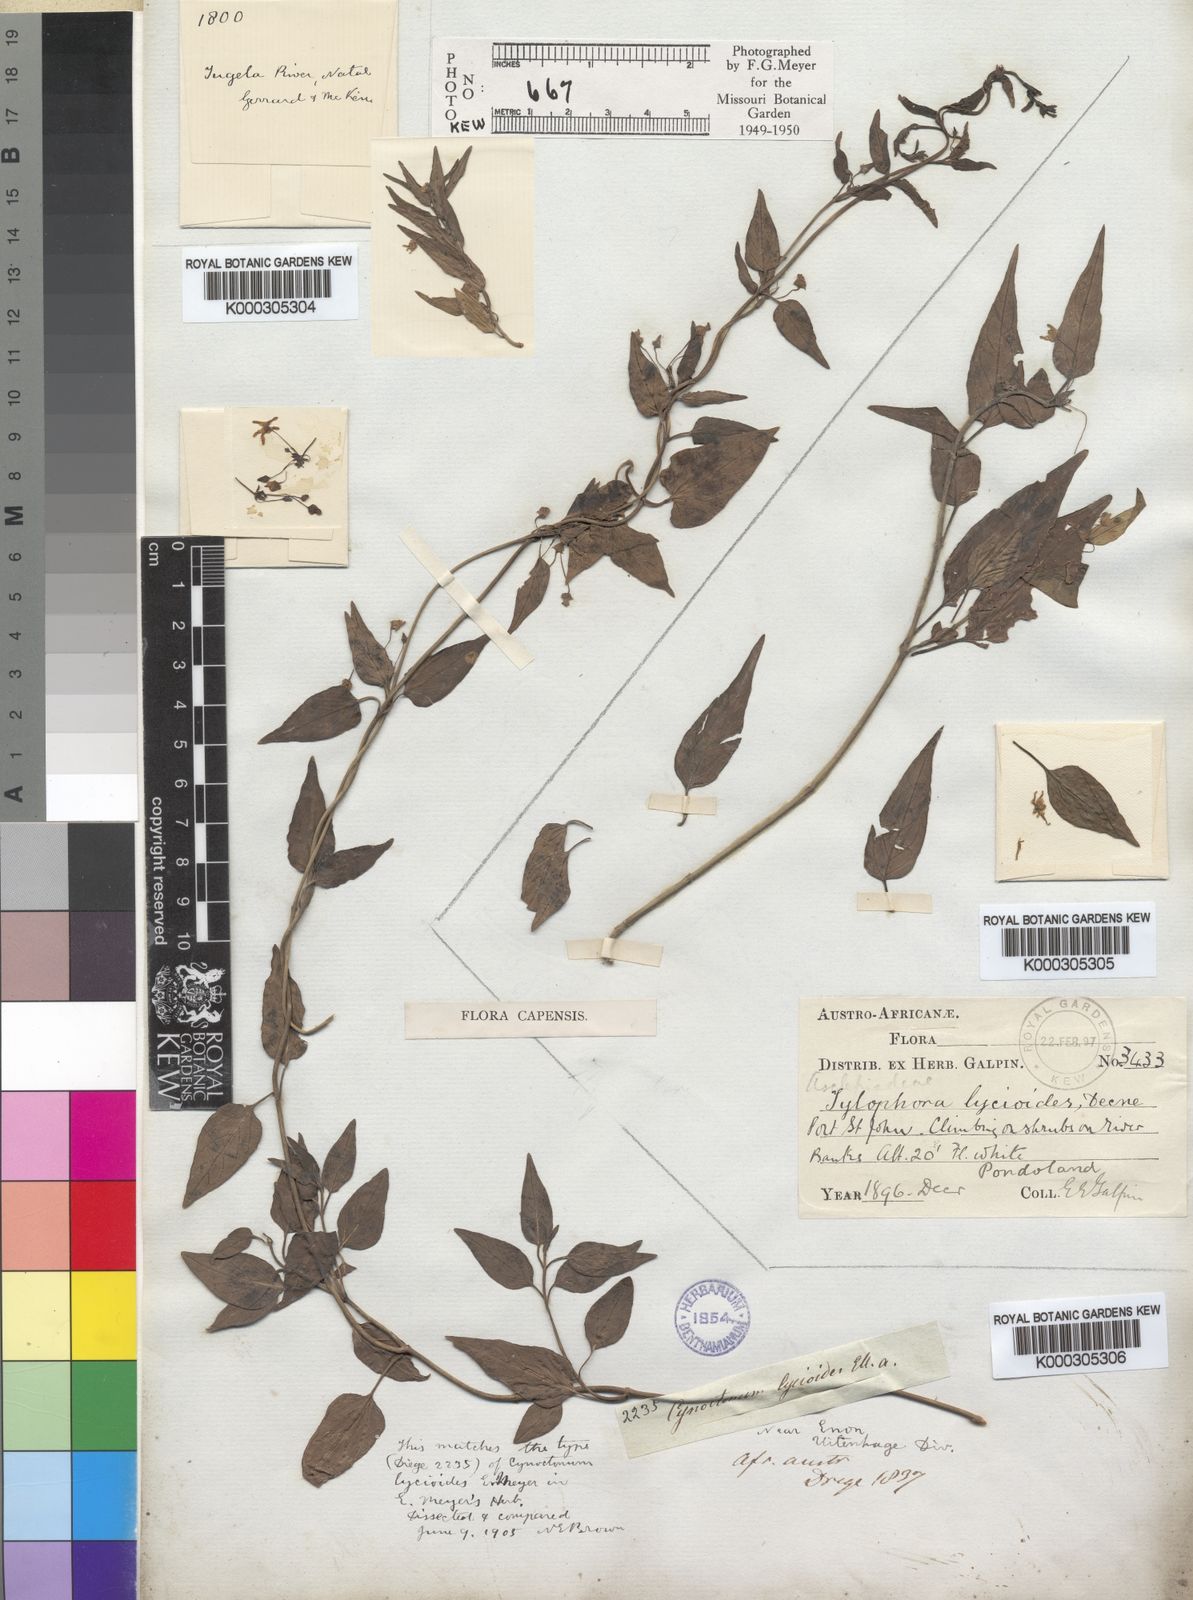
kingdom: Plantae
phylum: Tracheophyta
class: Magnoliopsida
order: Gentianales
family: Apocynaceae
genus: Vincetoxicum
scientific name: Vincetoxicum lycioides
